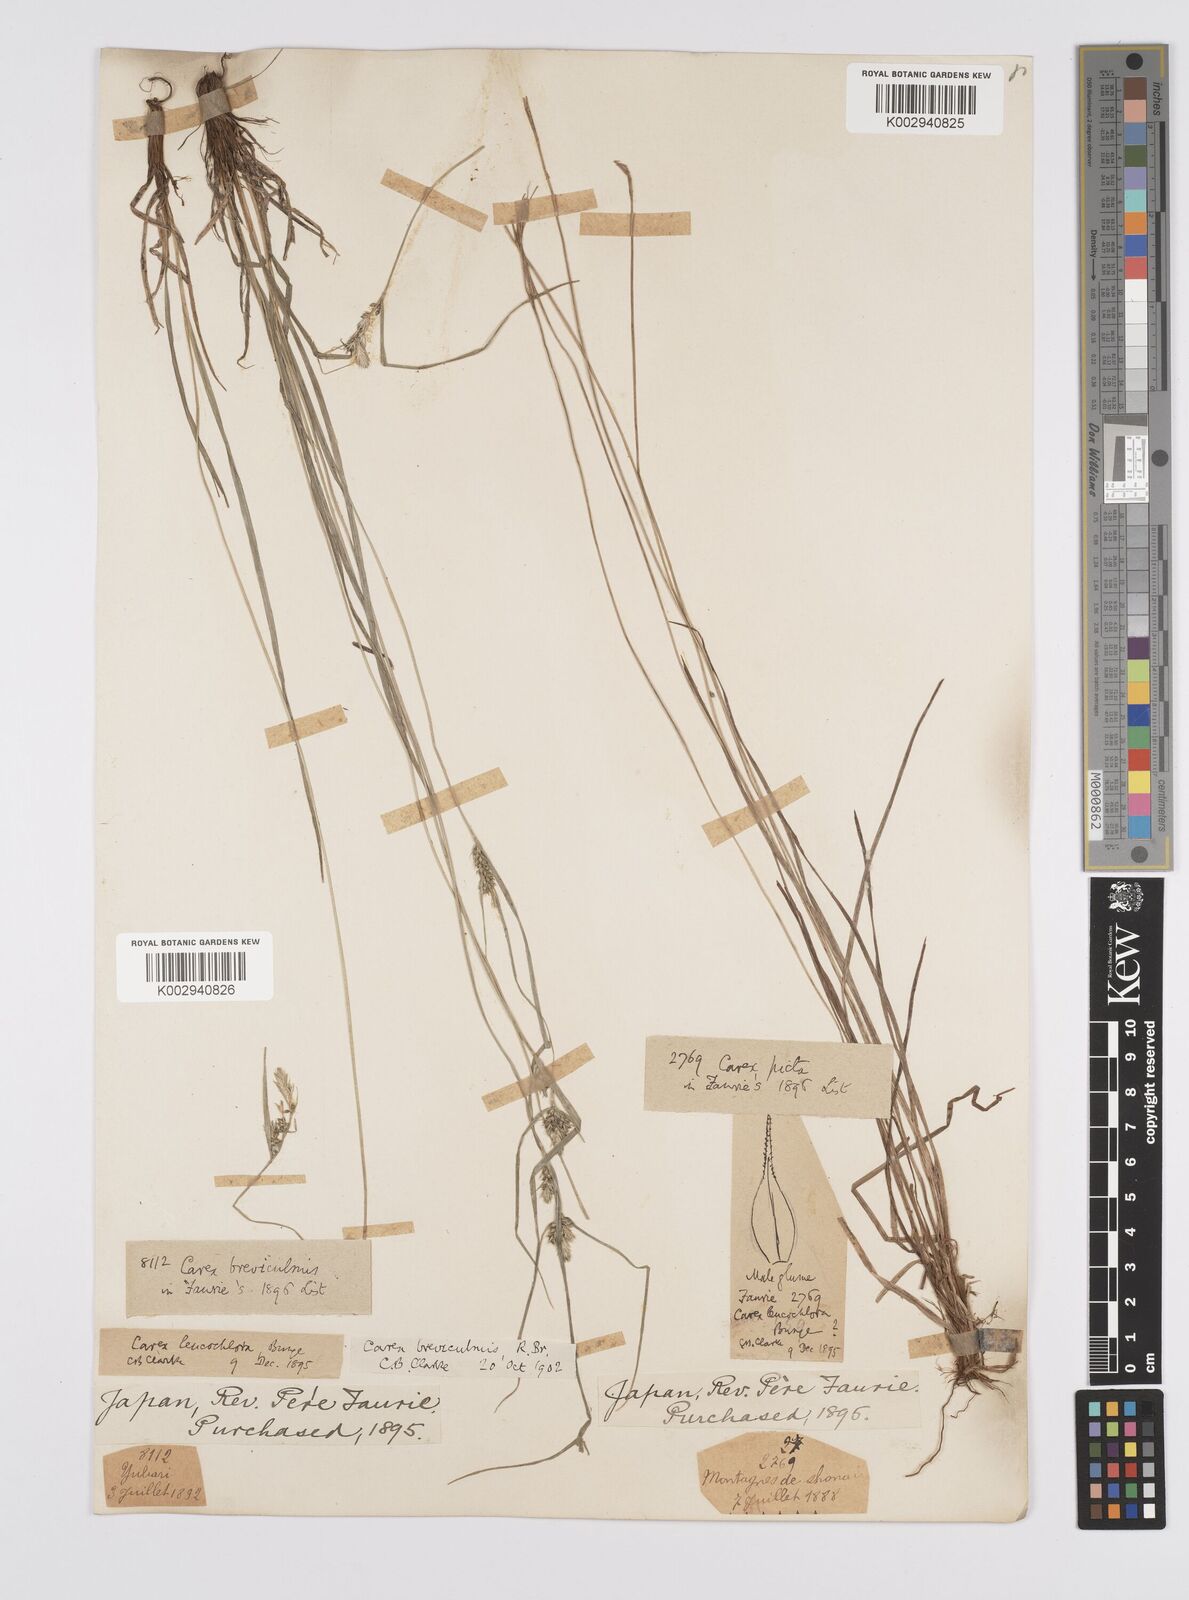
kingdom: Plantae
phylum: Tracheophyta
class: Liliopsida
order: Poales
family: Cyperaceae
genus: Carex
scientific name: Carex breviculmis
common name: Asian shortstem sedge
